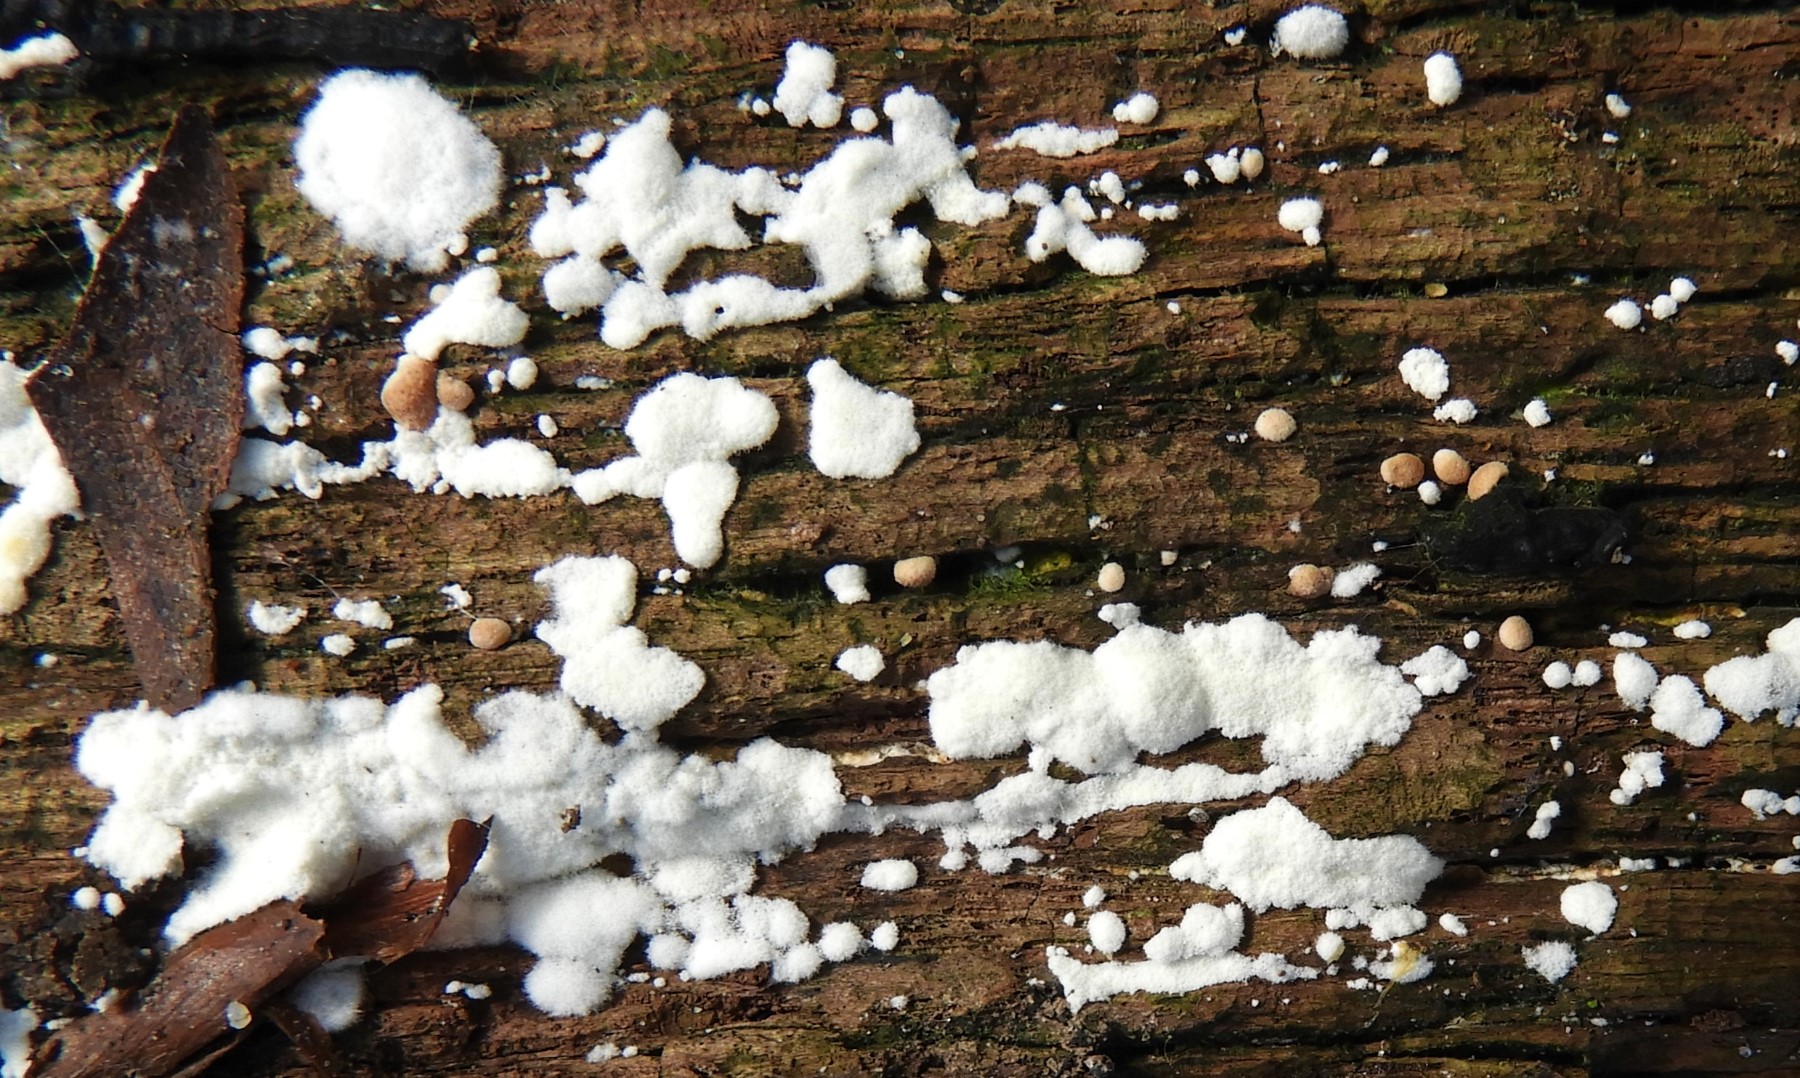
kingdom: Fungi
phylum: Ascomycota
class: Sordariomycetes
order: Hypocreales
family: Hypocreaceae
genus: Trichoderma
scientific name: Trichoderma
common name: kødkerne
